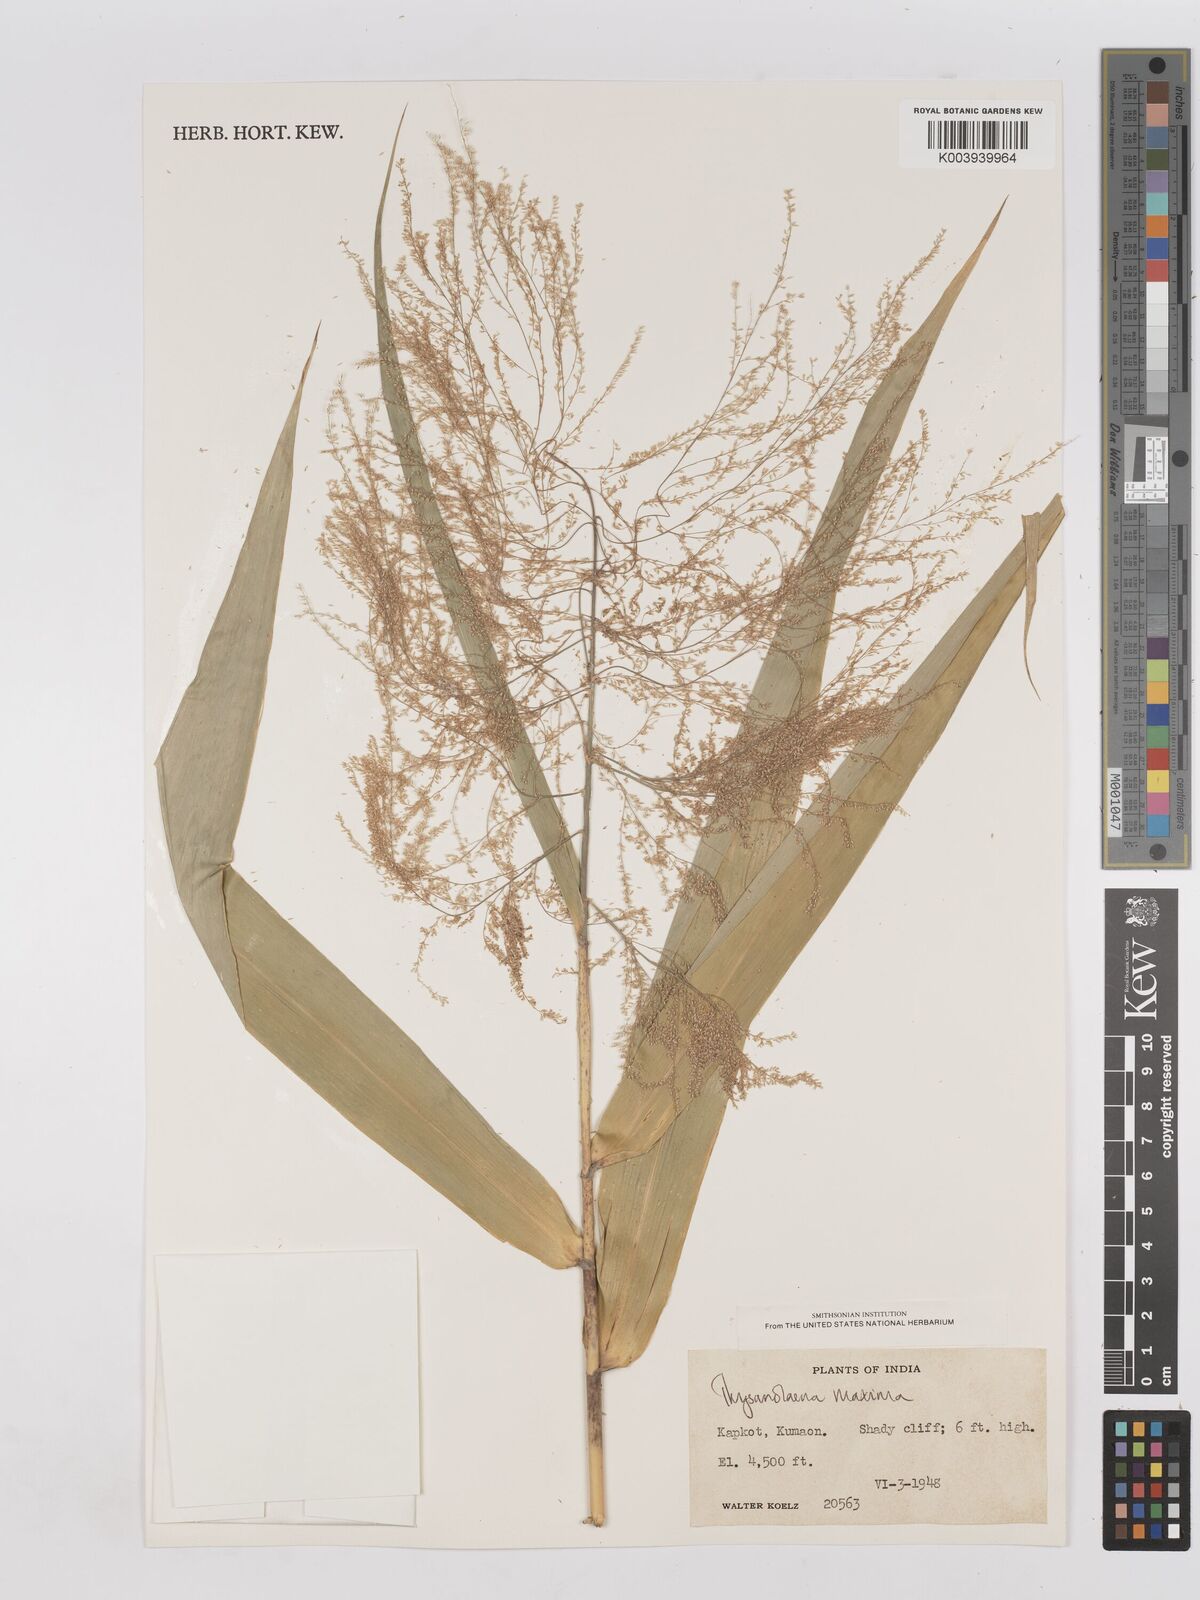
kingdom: Plantae
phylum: Tracheophyta
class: Liliopsida
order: Poales
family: Poaceae
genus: Thysanolaena
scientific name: Thysanolaena latifolia
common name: Tiger grass
